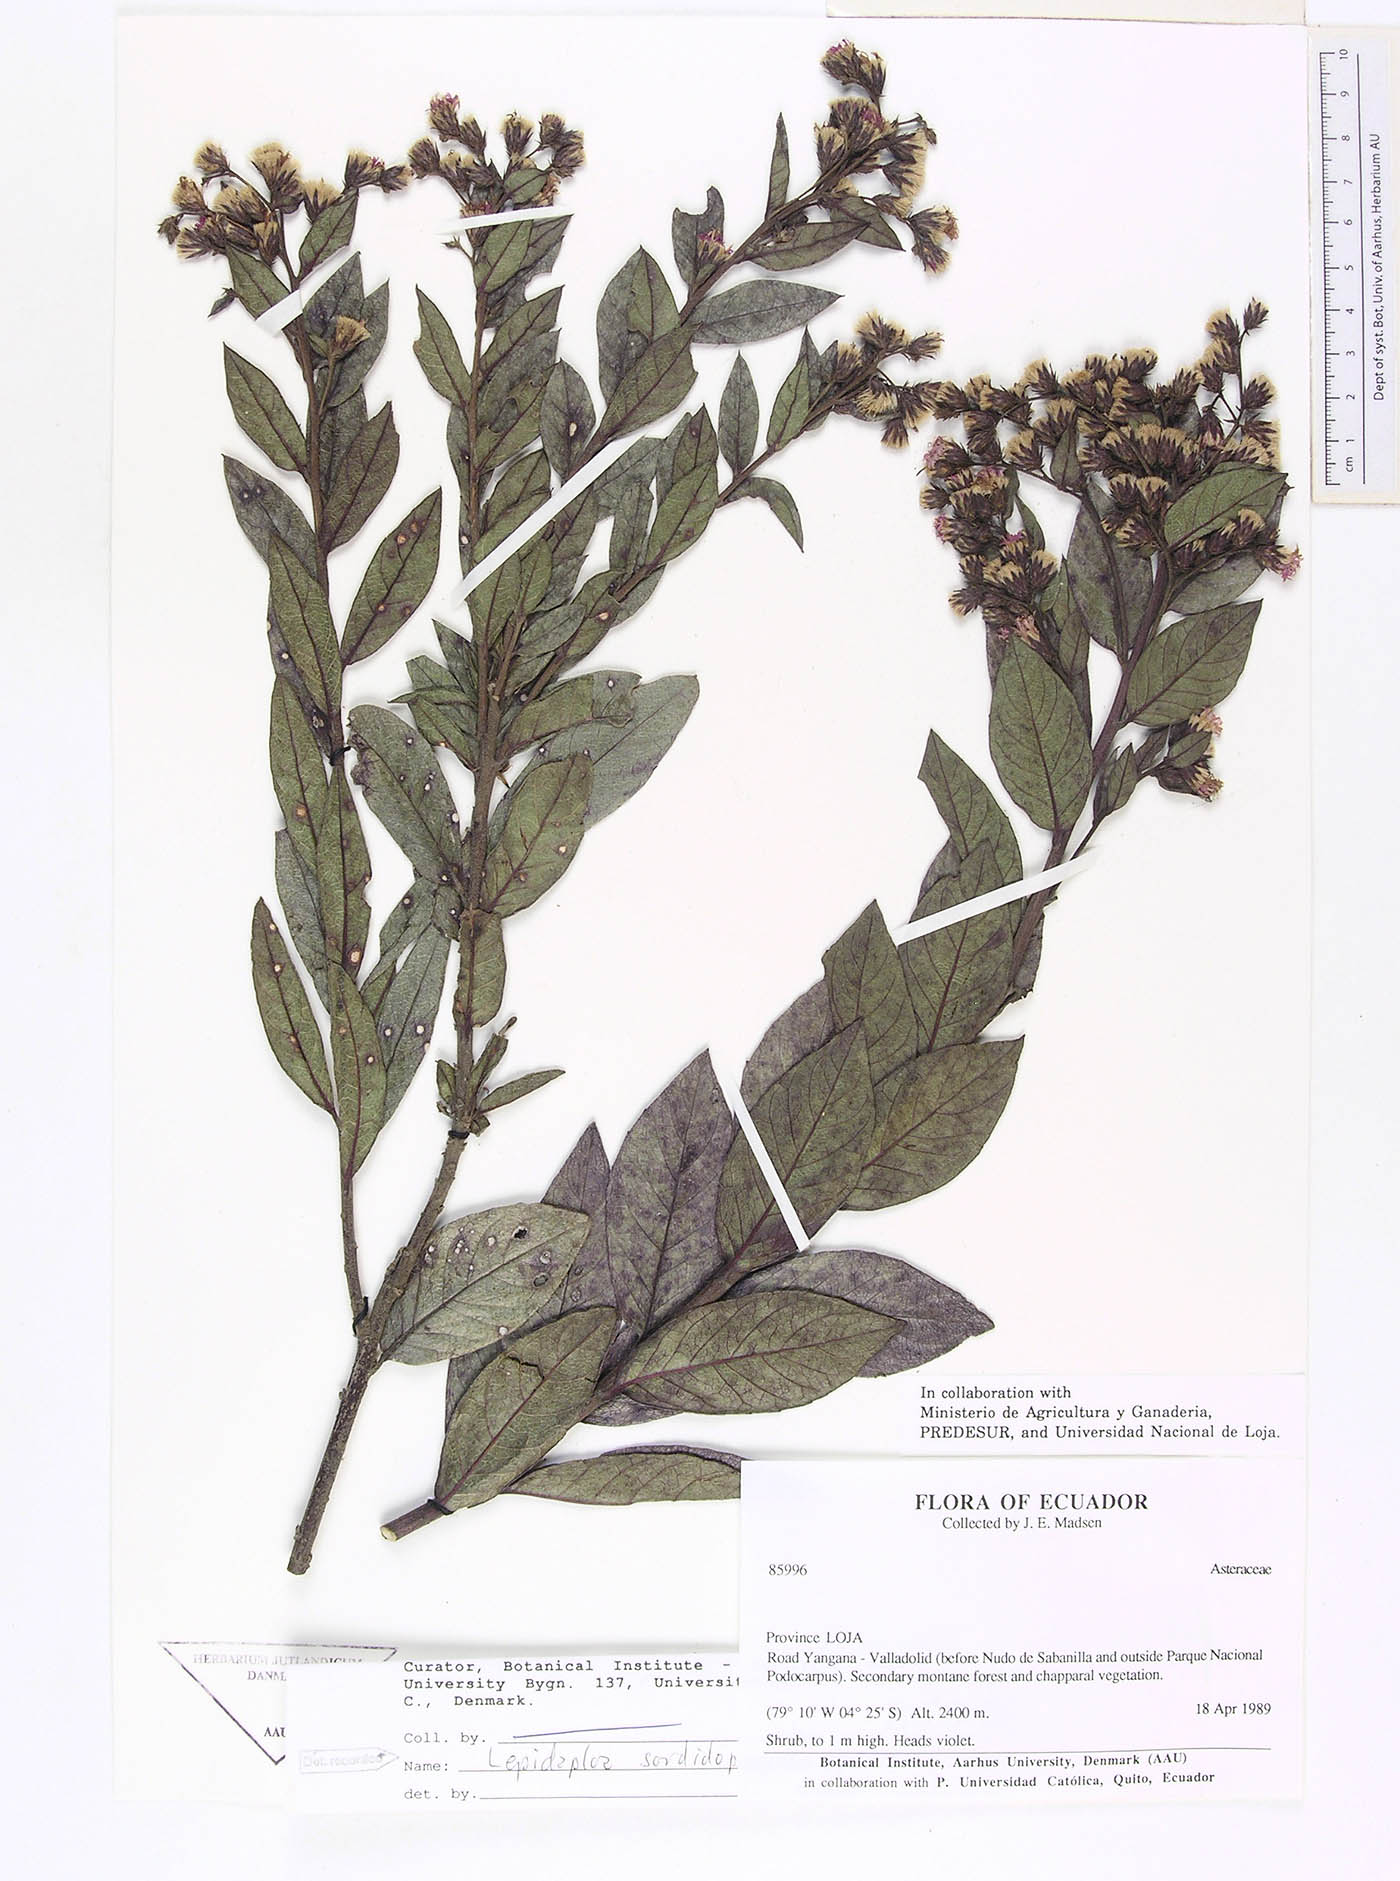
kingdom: Plantae
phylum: Tracheophyta
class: Magnoliopsida
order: Asterales
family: Asteraceae
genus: Lepidaploa
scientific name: Lepidaploa sordidopapposa
